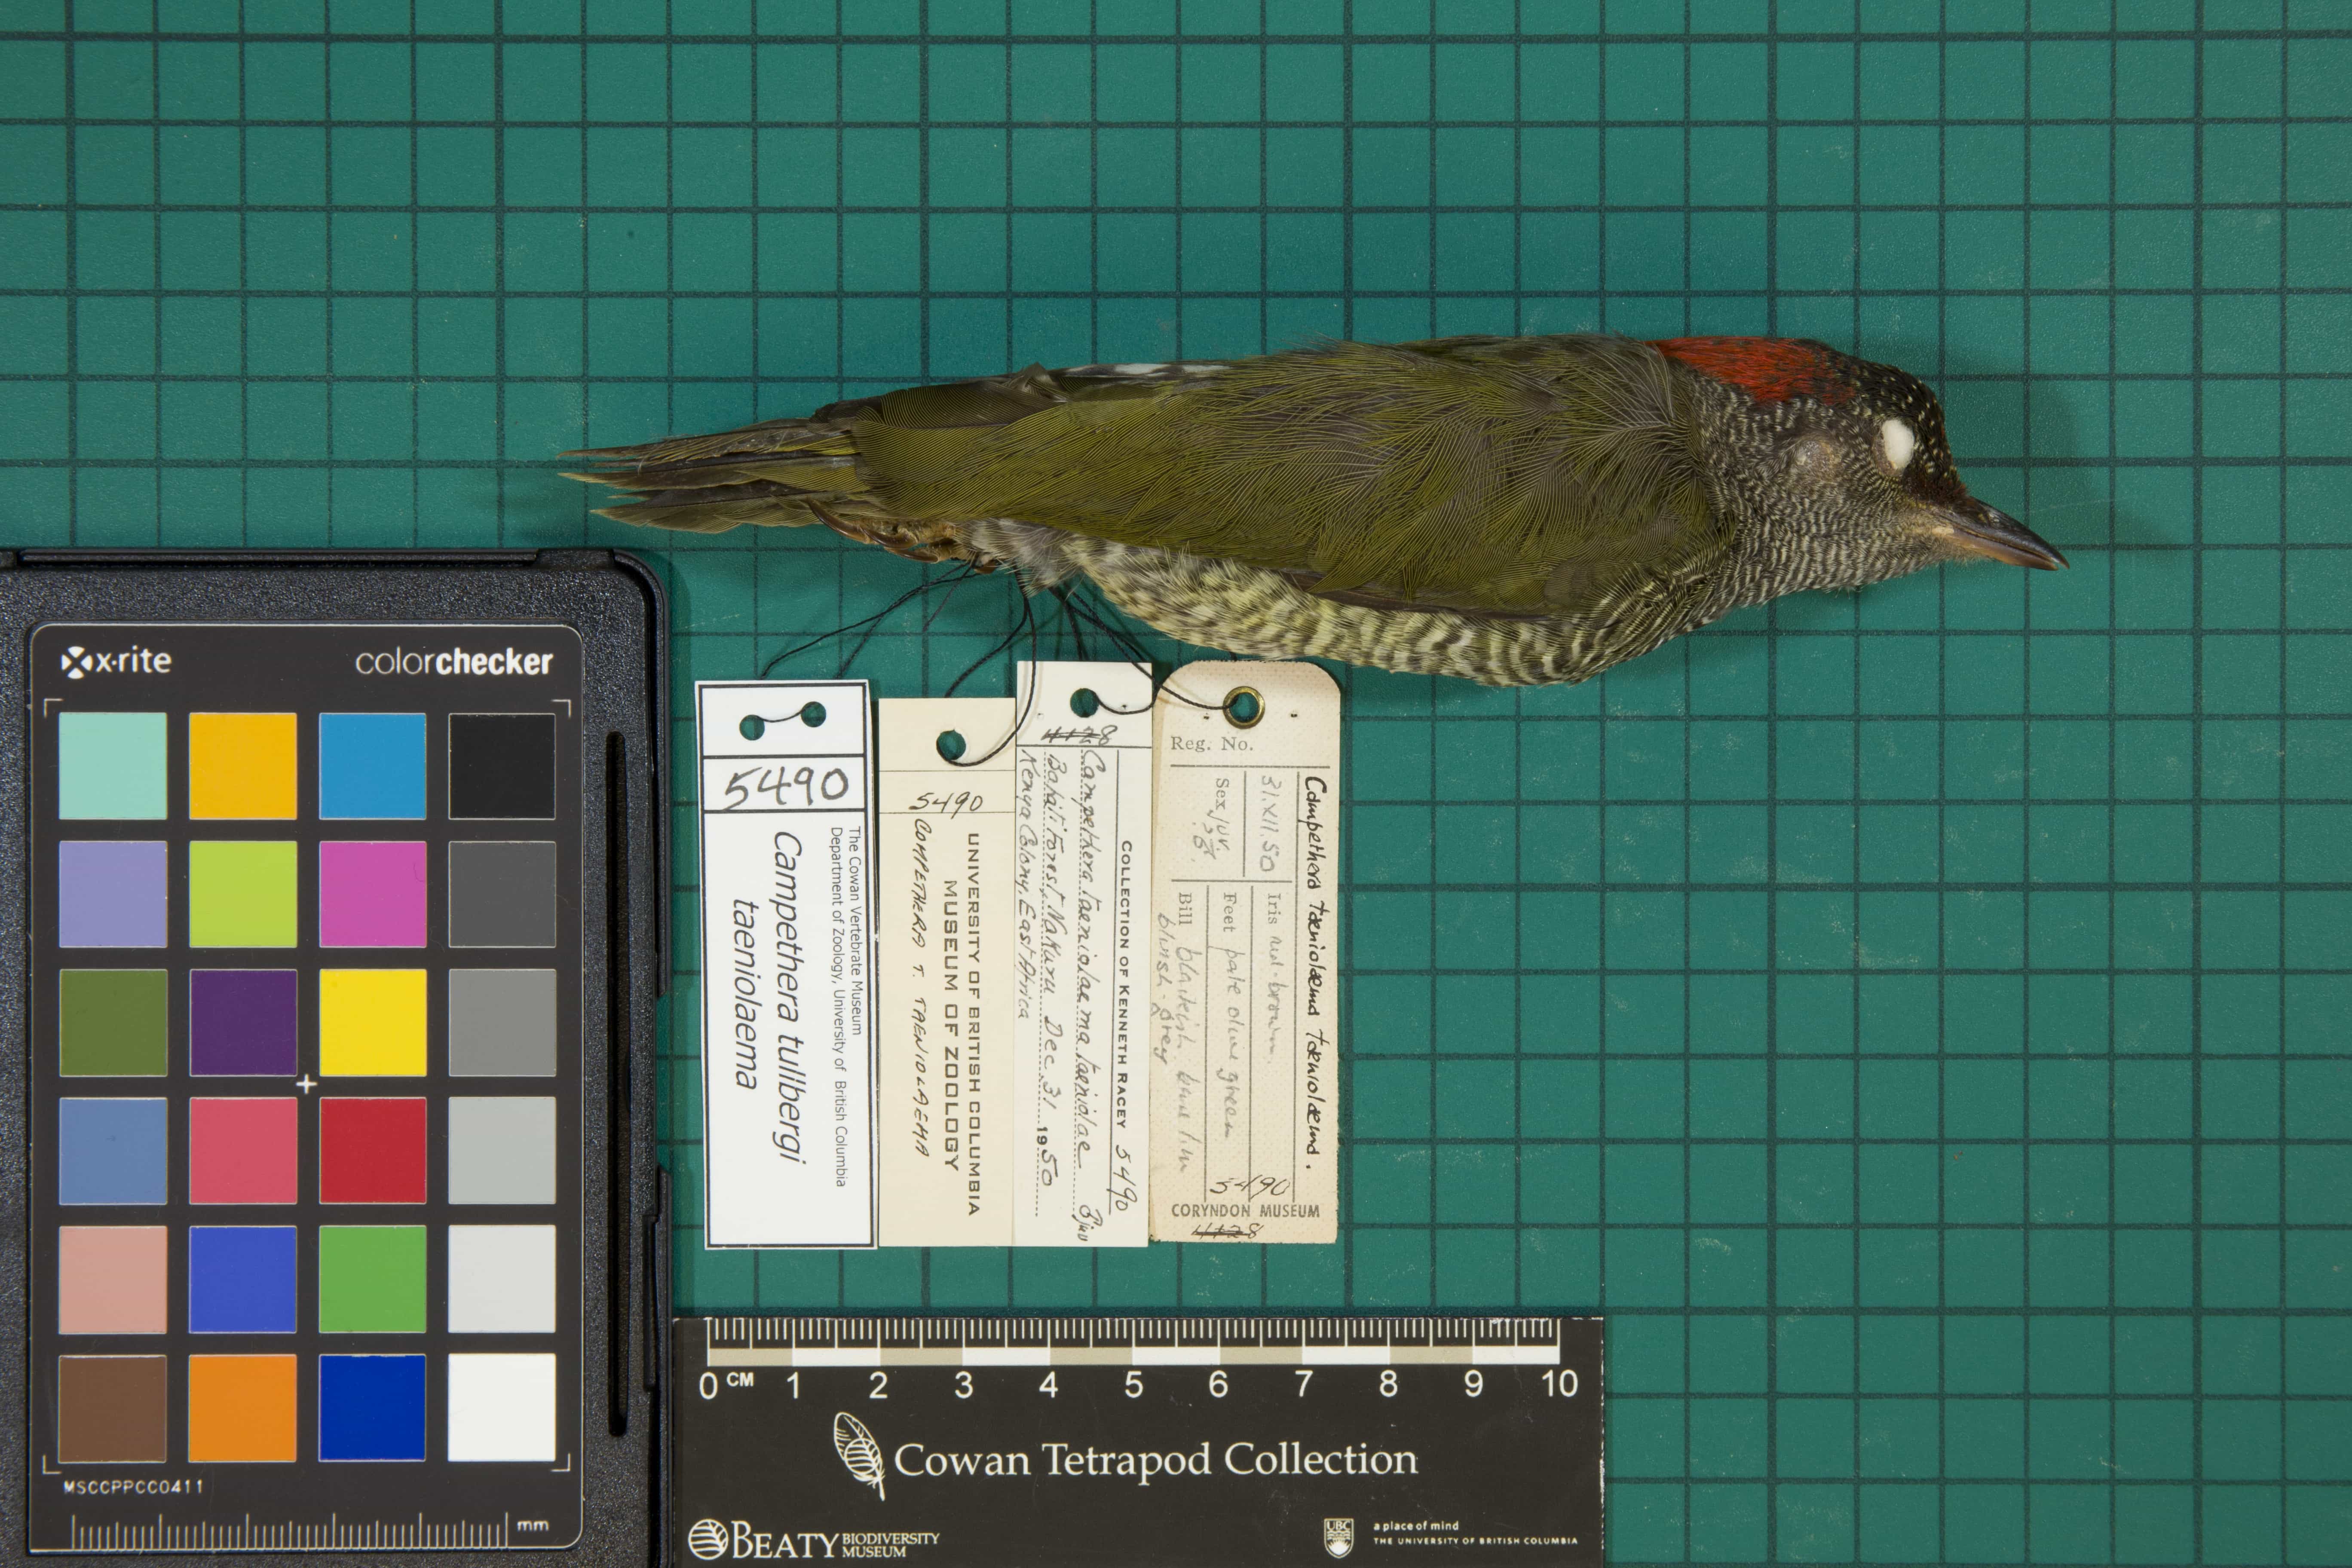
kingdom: Animalia
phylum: Chordata
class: Aves
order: Piciformes
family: Picidae
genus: Campethera
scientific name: Campethera taeniolaema
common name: Tullberg's Woodpecker
